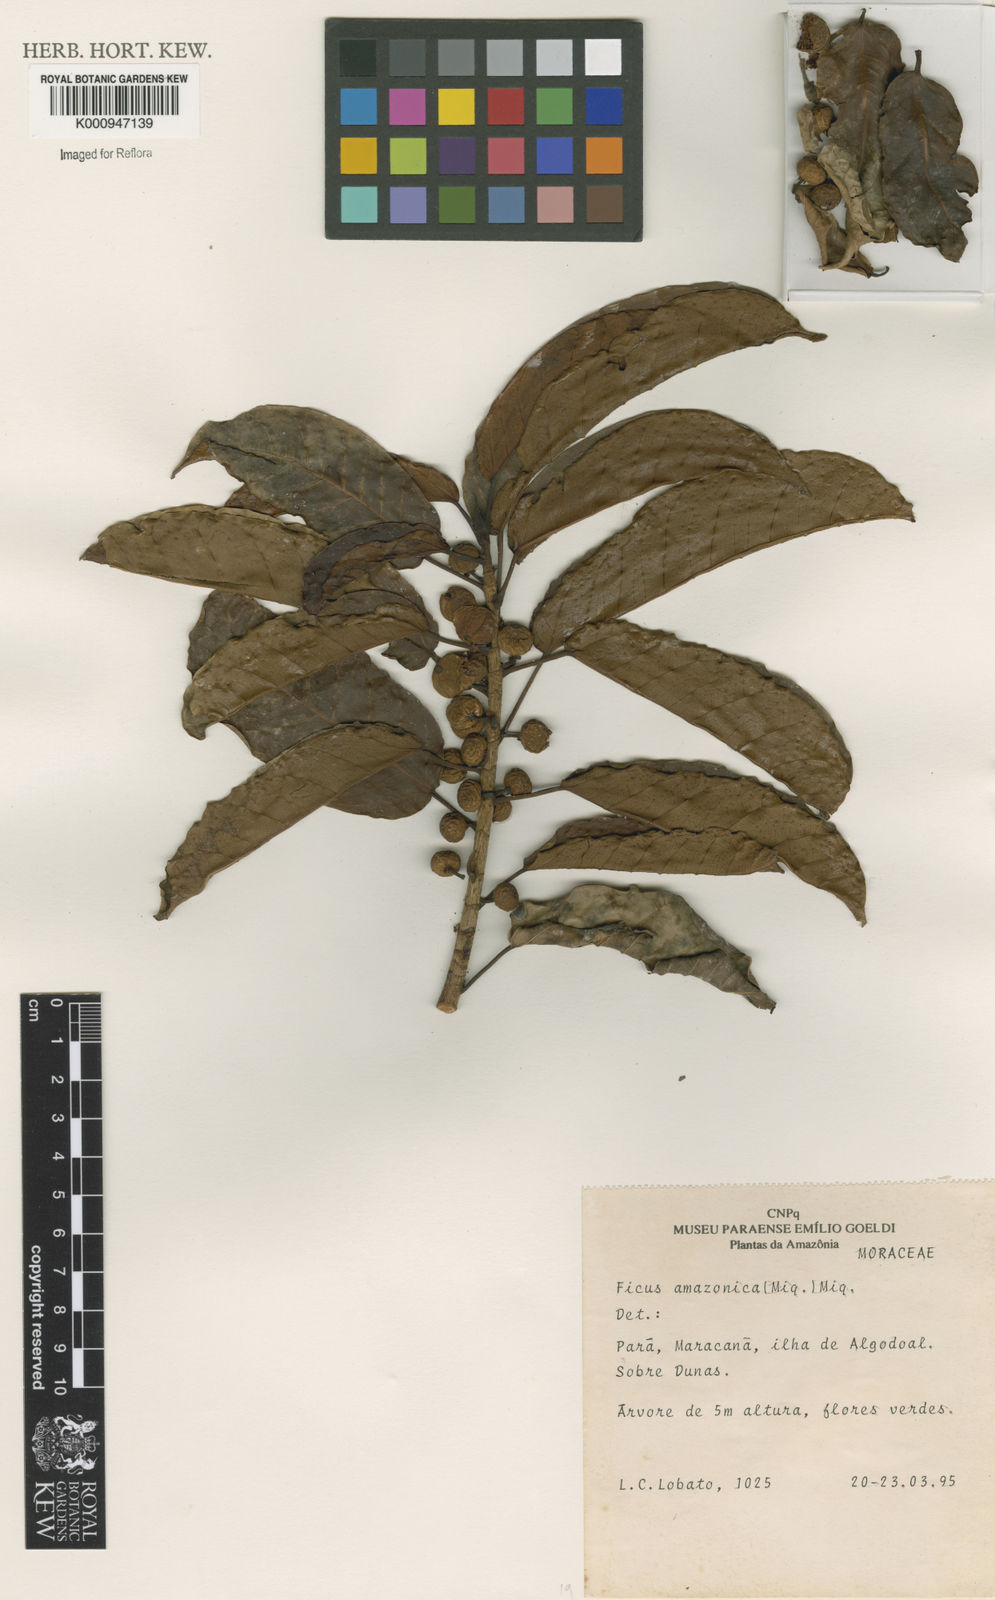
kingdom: Plantae
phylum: Tracheophyta
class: Magnoliopsida
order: Rosales
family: Moraceae
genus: Ficus
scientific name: Ficus amazonica
